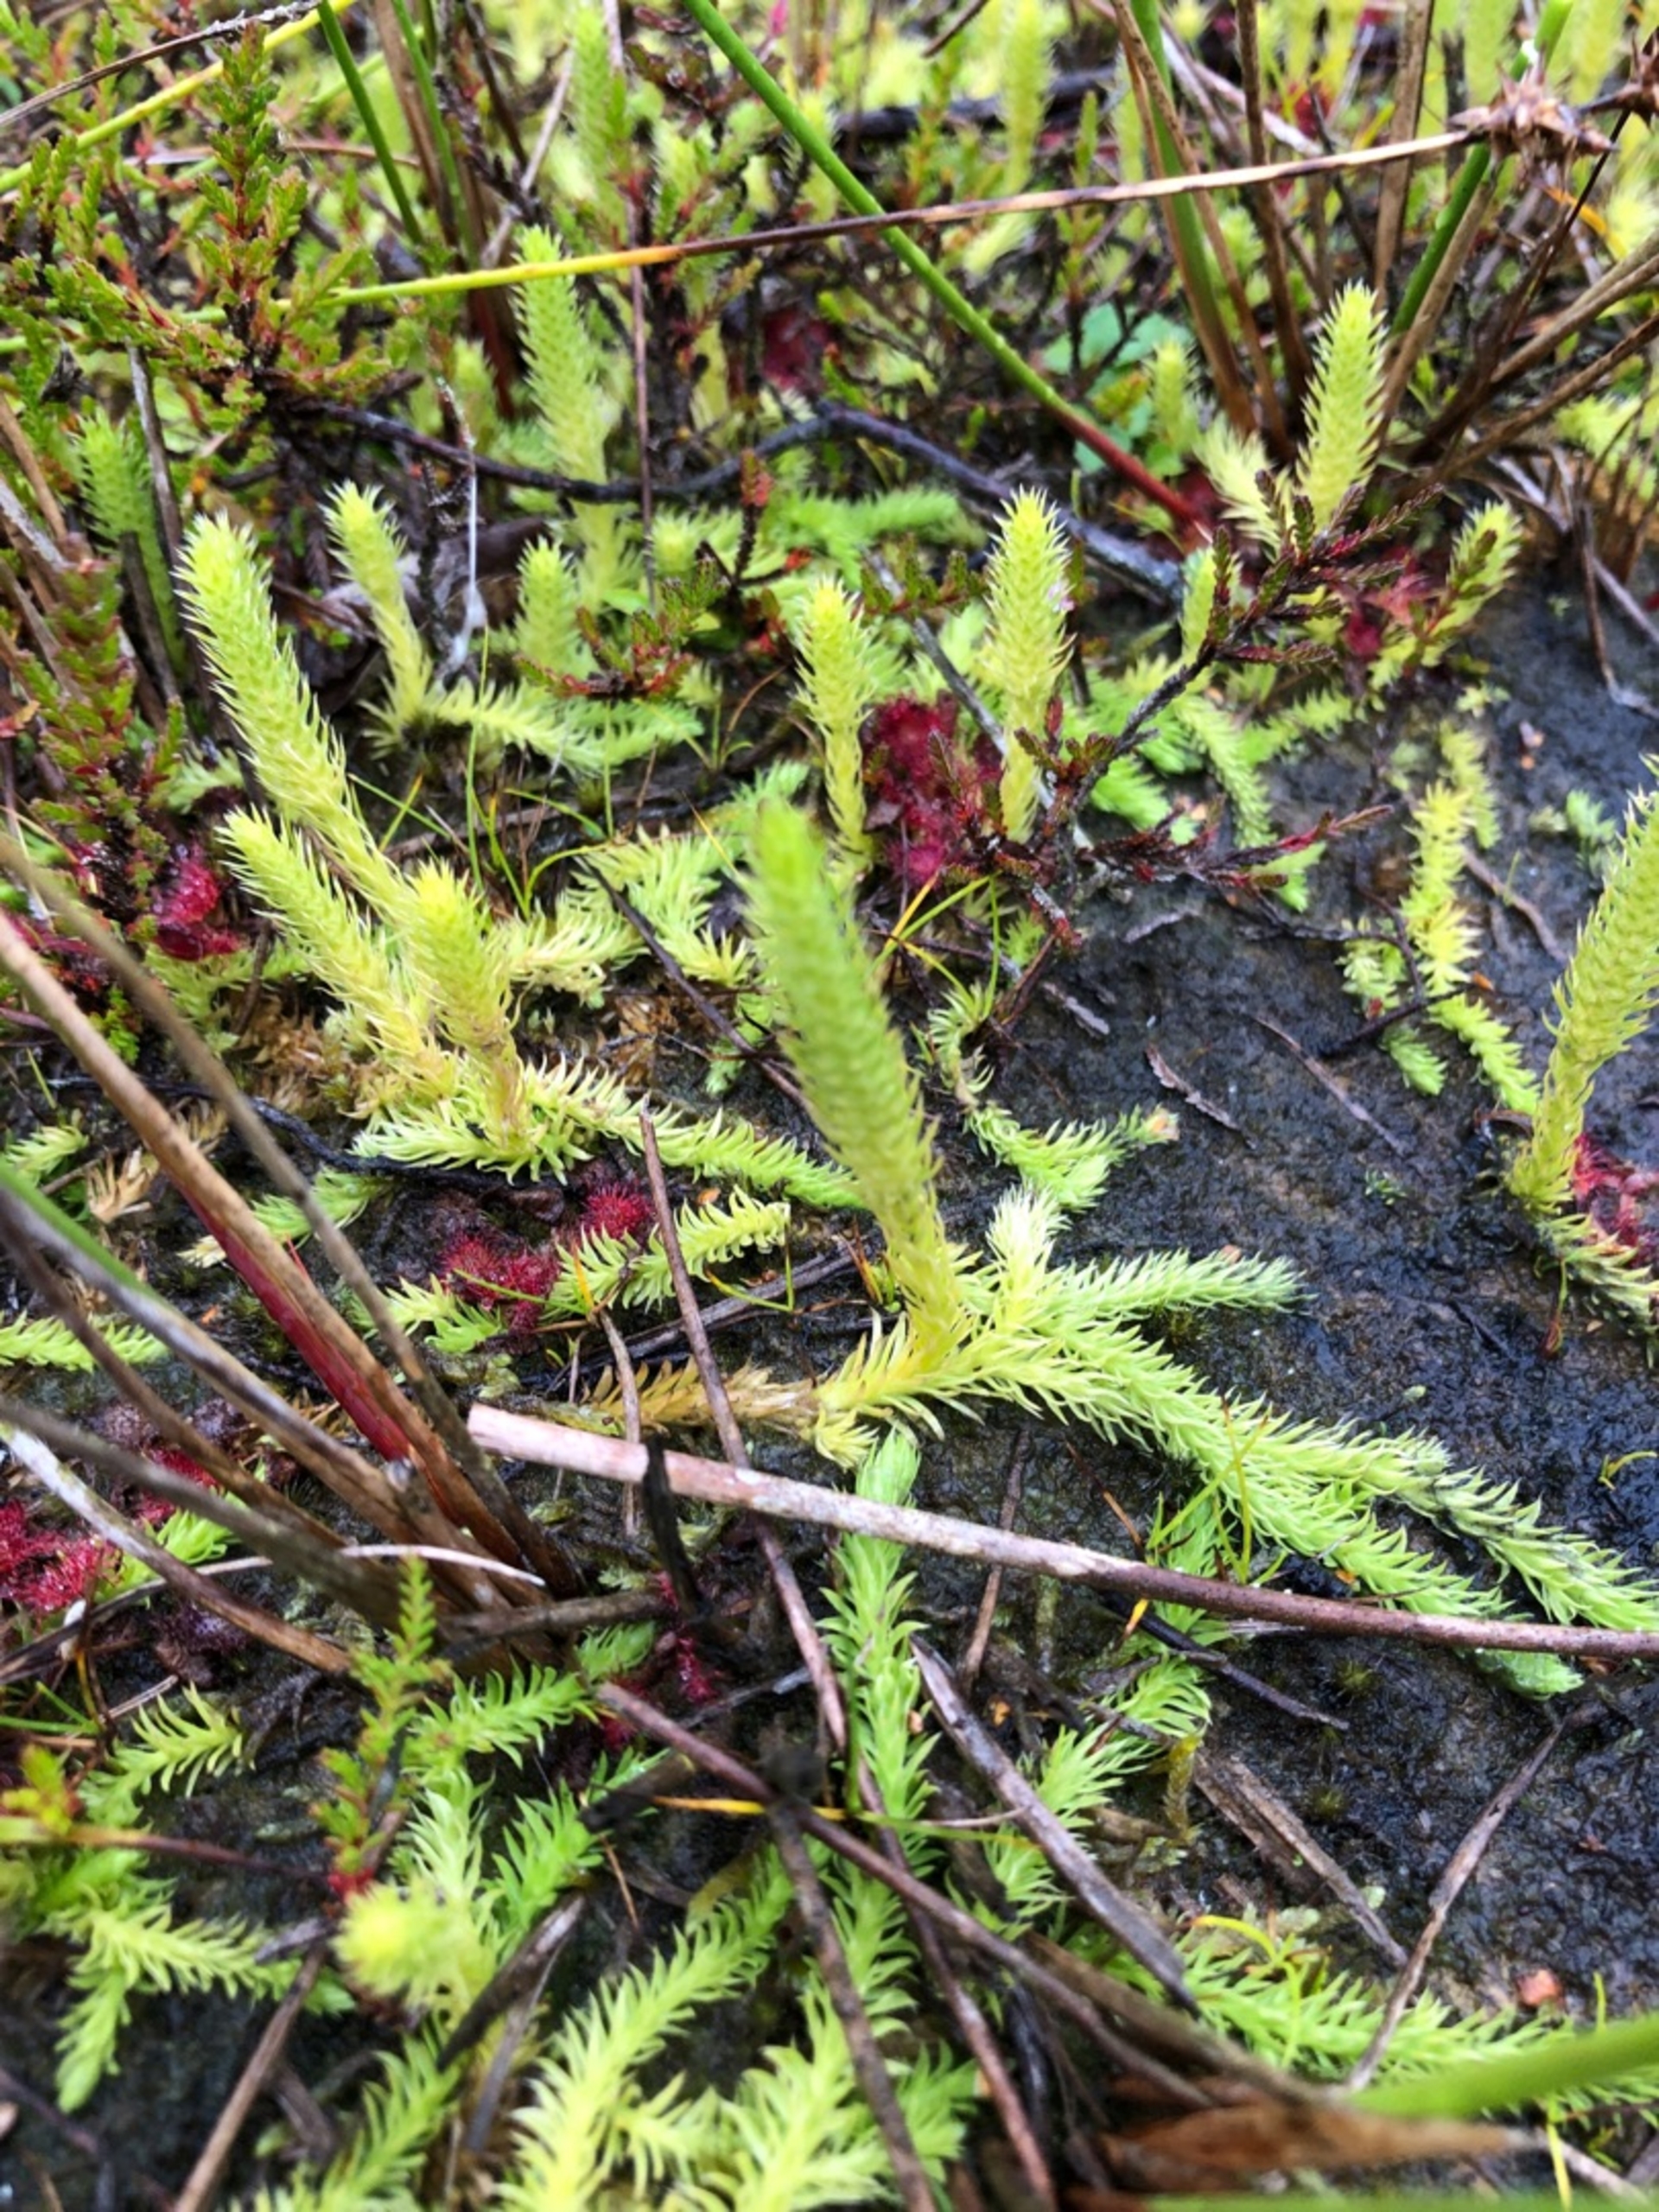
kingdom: Plantae
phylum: Tracheophyta
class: Lycopodiopsida
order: Lycopodiales
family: Lycopodiaceae
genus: Lycopodiella
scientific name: Lycopodiella inundata
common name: Liden ulvefod
